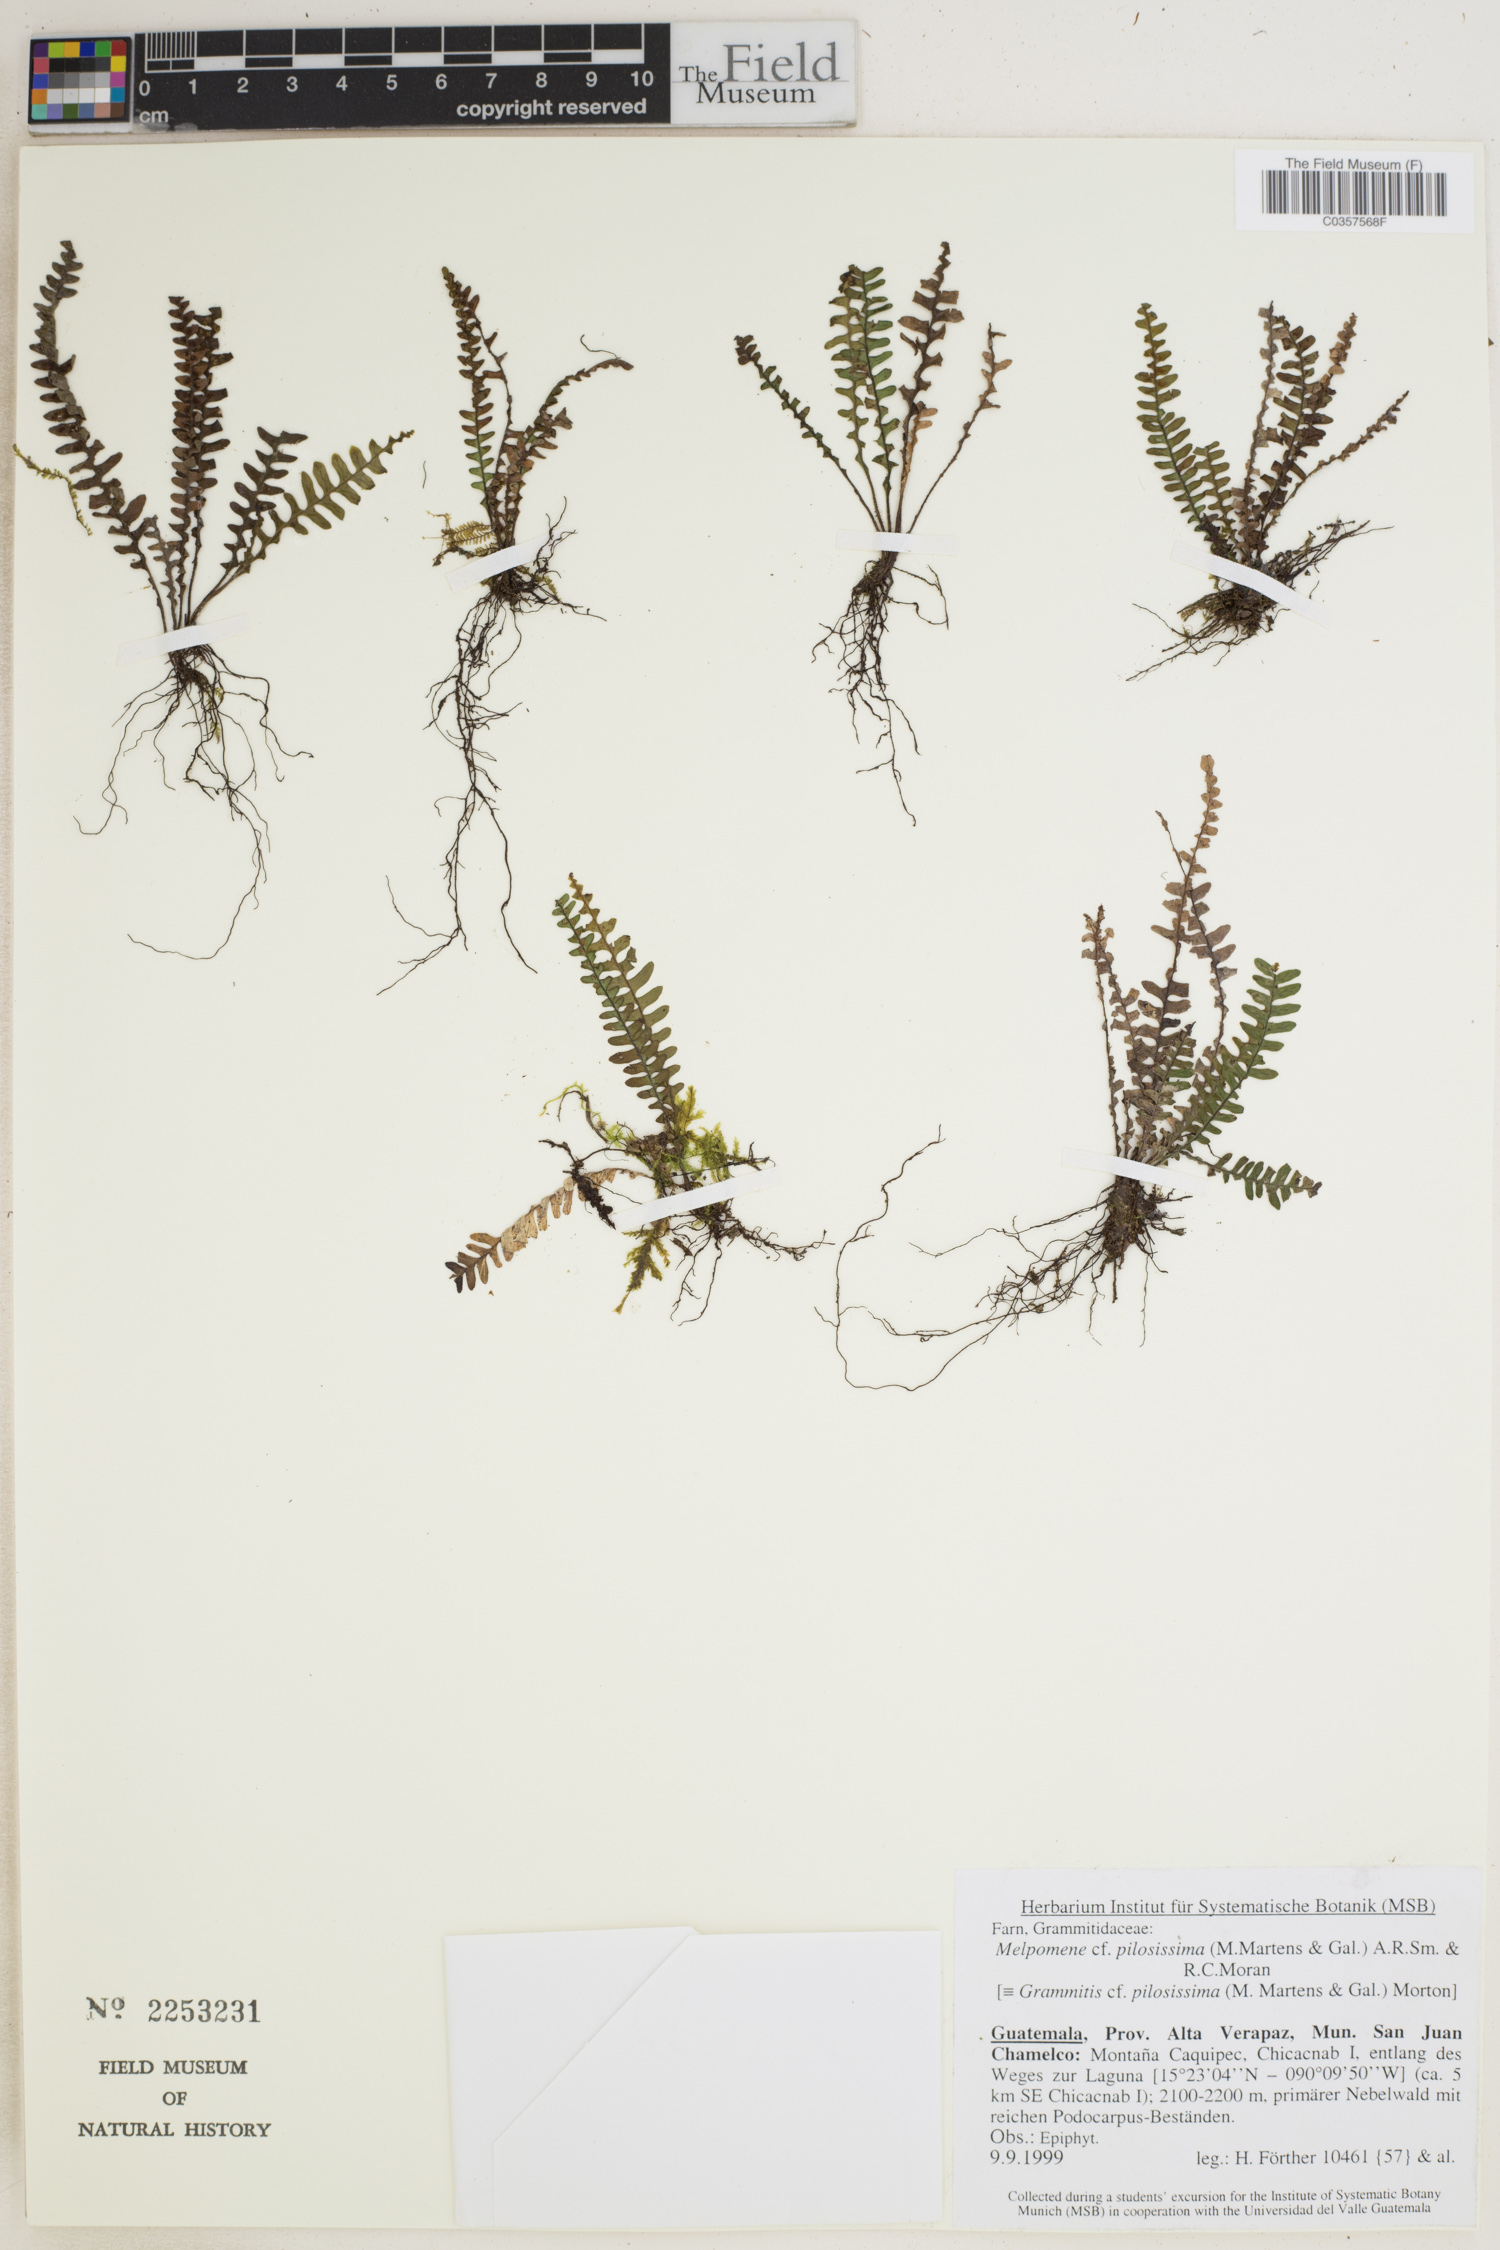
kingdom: Plantae
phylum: Tracheophyta
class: Polypodiopsida
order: Polypodiales
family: Polypodiaceae
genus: Melpomene
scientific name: Melpomene pilosissima
